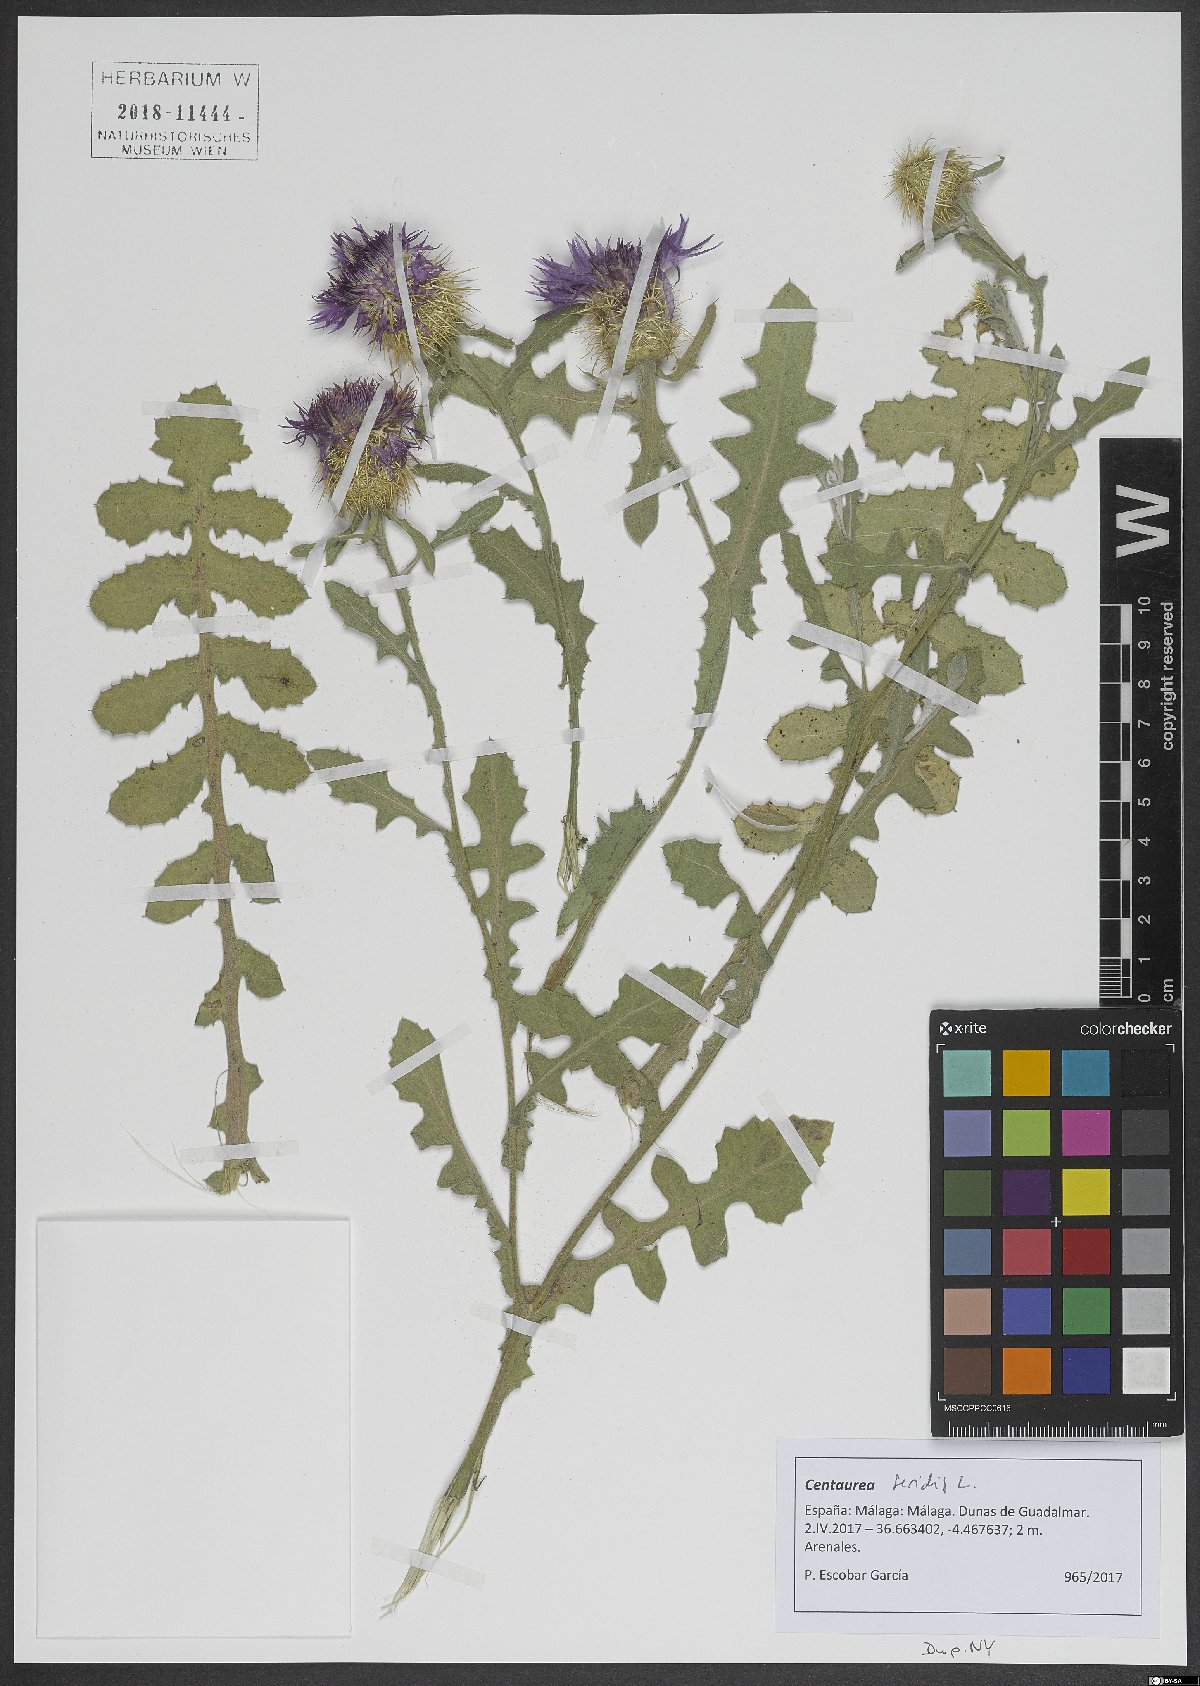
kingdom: Plantae
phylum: Tracheophyta
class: Magnoliopsida
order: Asterales
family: Asteraceae
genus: Centaurea
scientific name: Centaurea seridis
